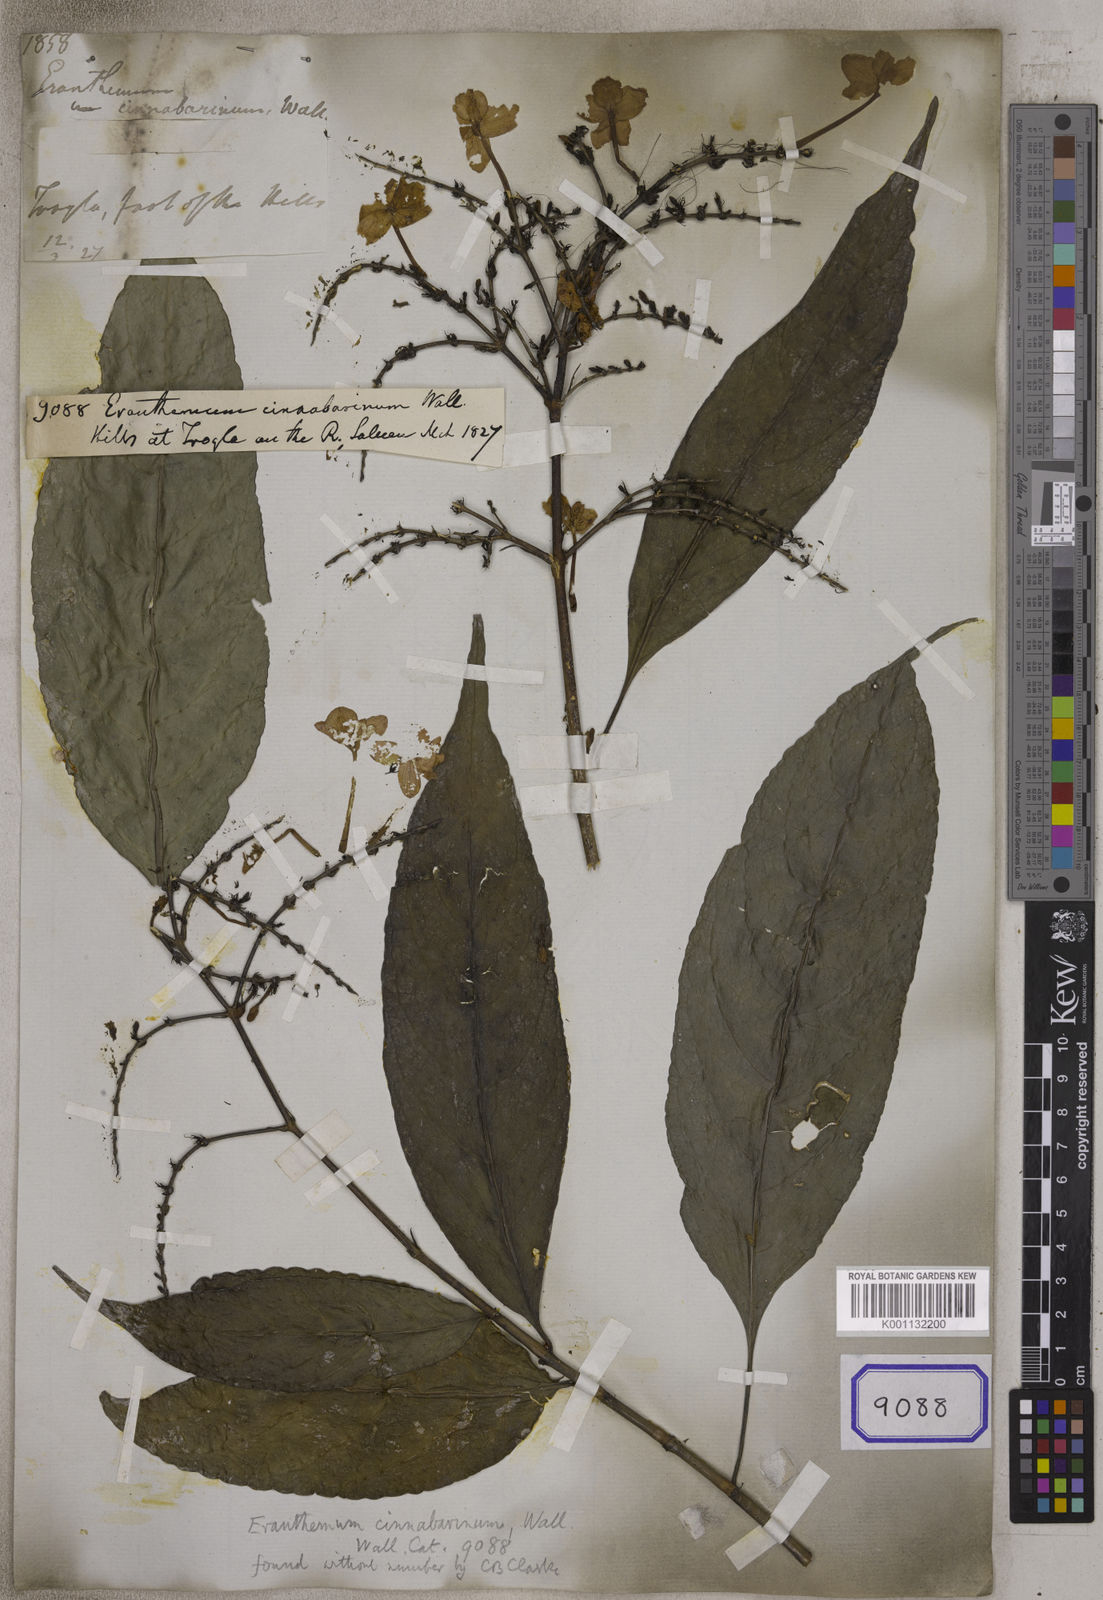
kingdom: Plantae
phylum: Tracheophyta
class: Magnoliopsida
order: Lamiales
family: Acanthaceae
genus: Pseuderanthemum
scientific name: Pseuderanthemum cinnabarinum
